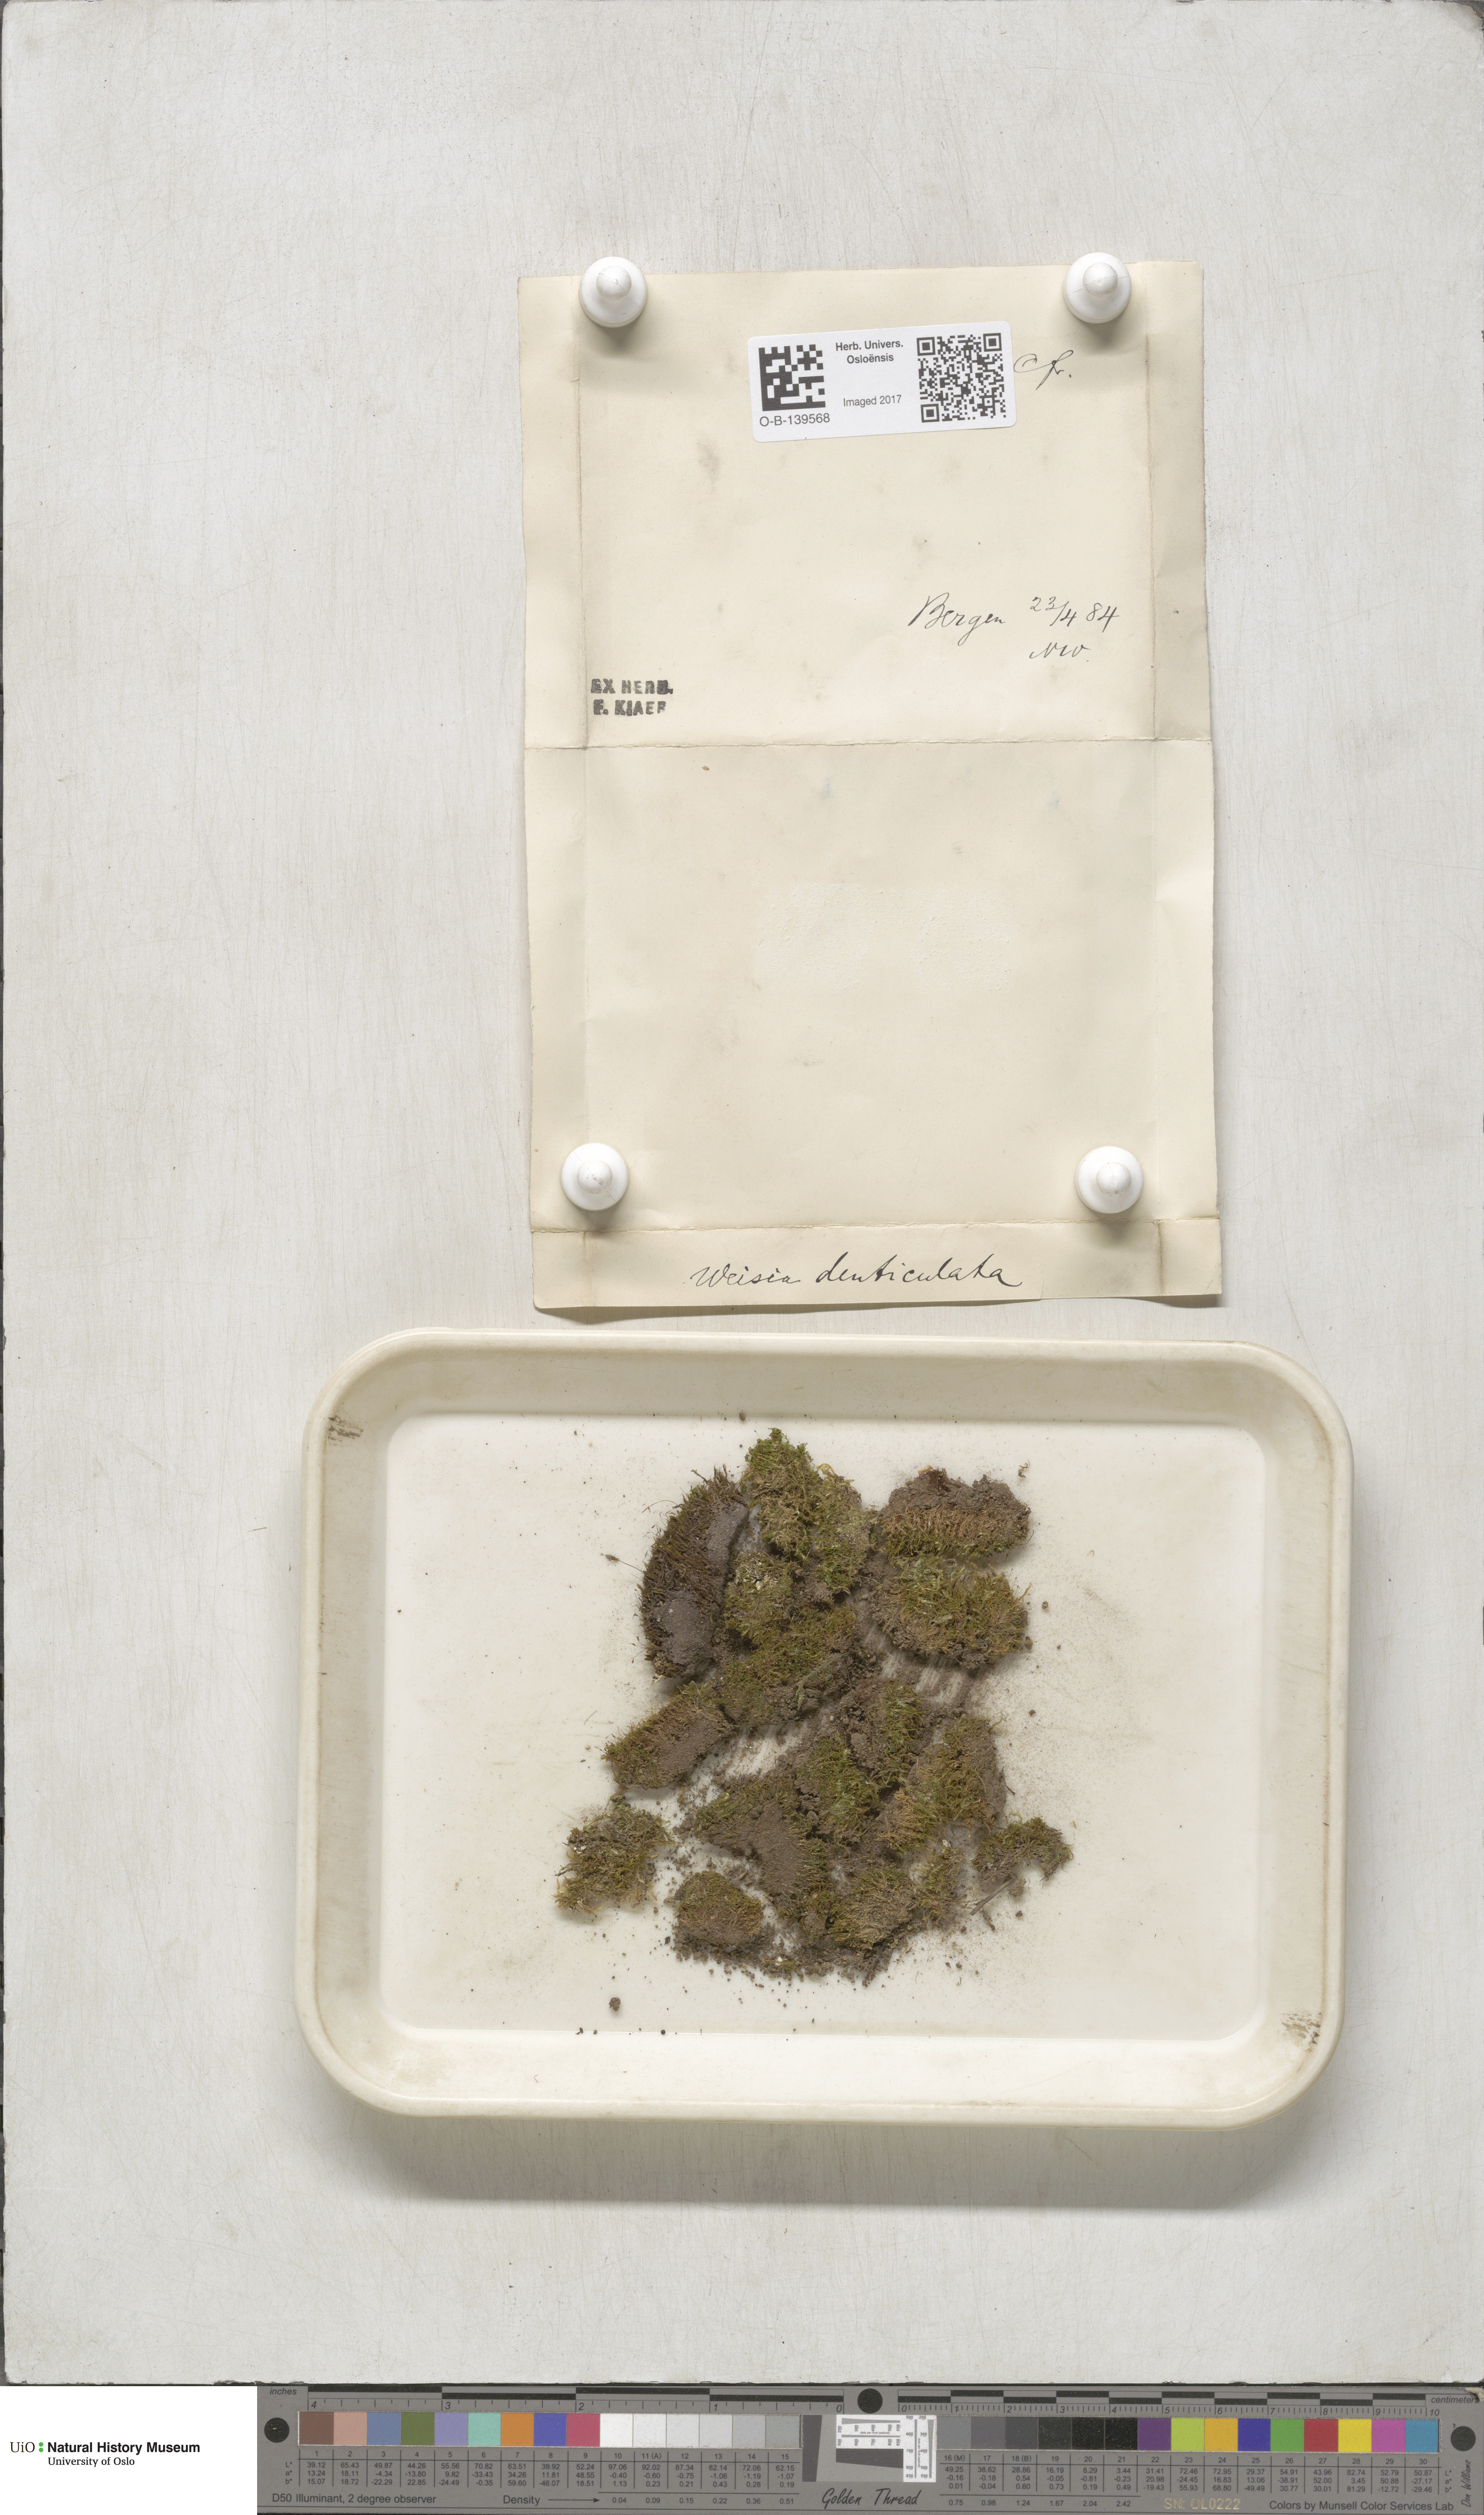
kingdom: Plantae
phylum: Bryophyta
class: Bryopsida
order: Dicranales
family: Rhabdoweisiaceae
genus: Rhabdoweisia
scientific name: Rhabdoweisia crispata
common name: Fine-toothed streak moss
